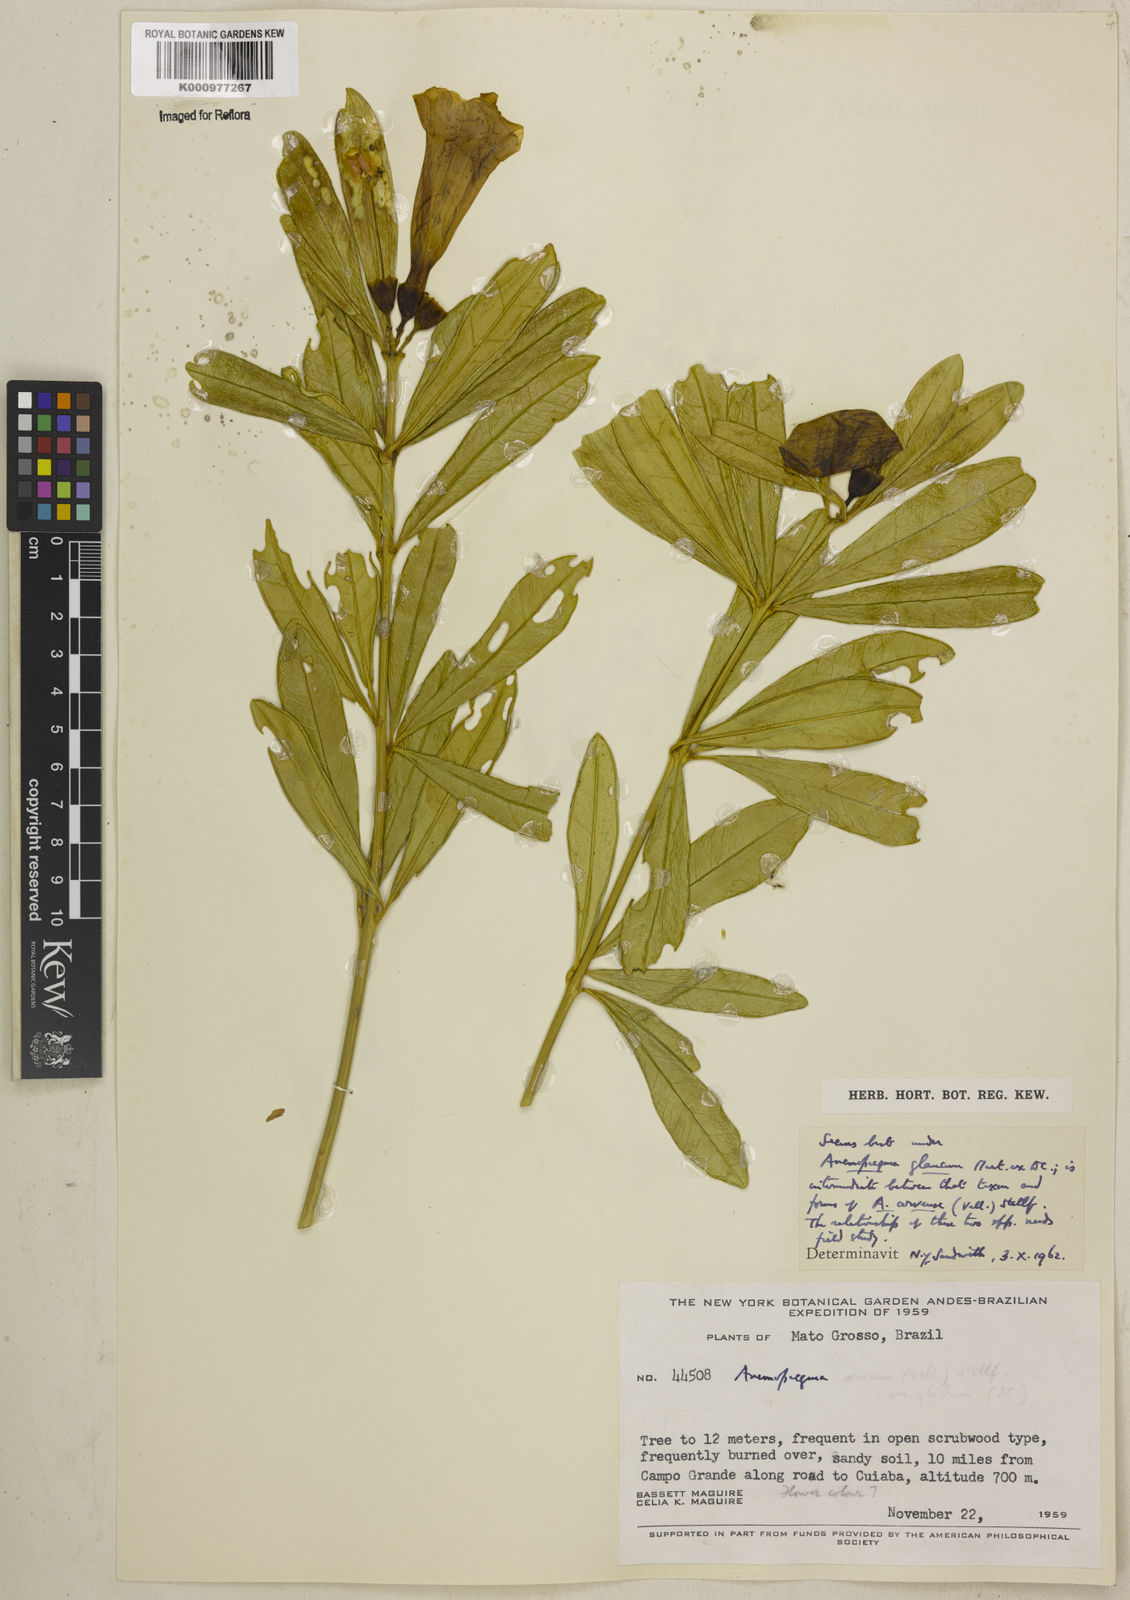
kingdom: Plantae
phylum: Tracheophyta
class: Magnoliopsida
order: Lamiales
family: Bignoniaceae
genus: Anemopaegma
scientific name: Anemopaegma glaucum
